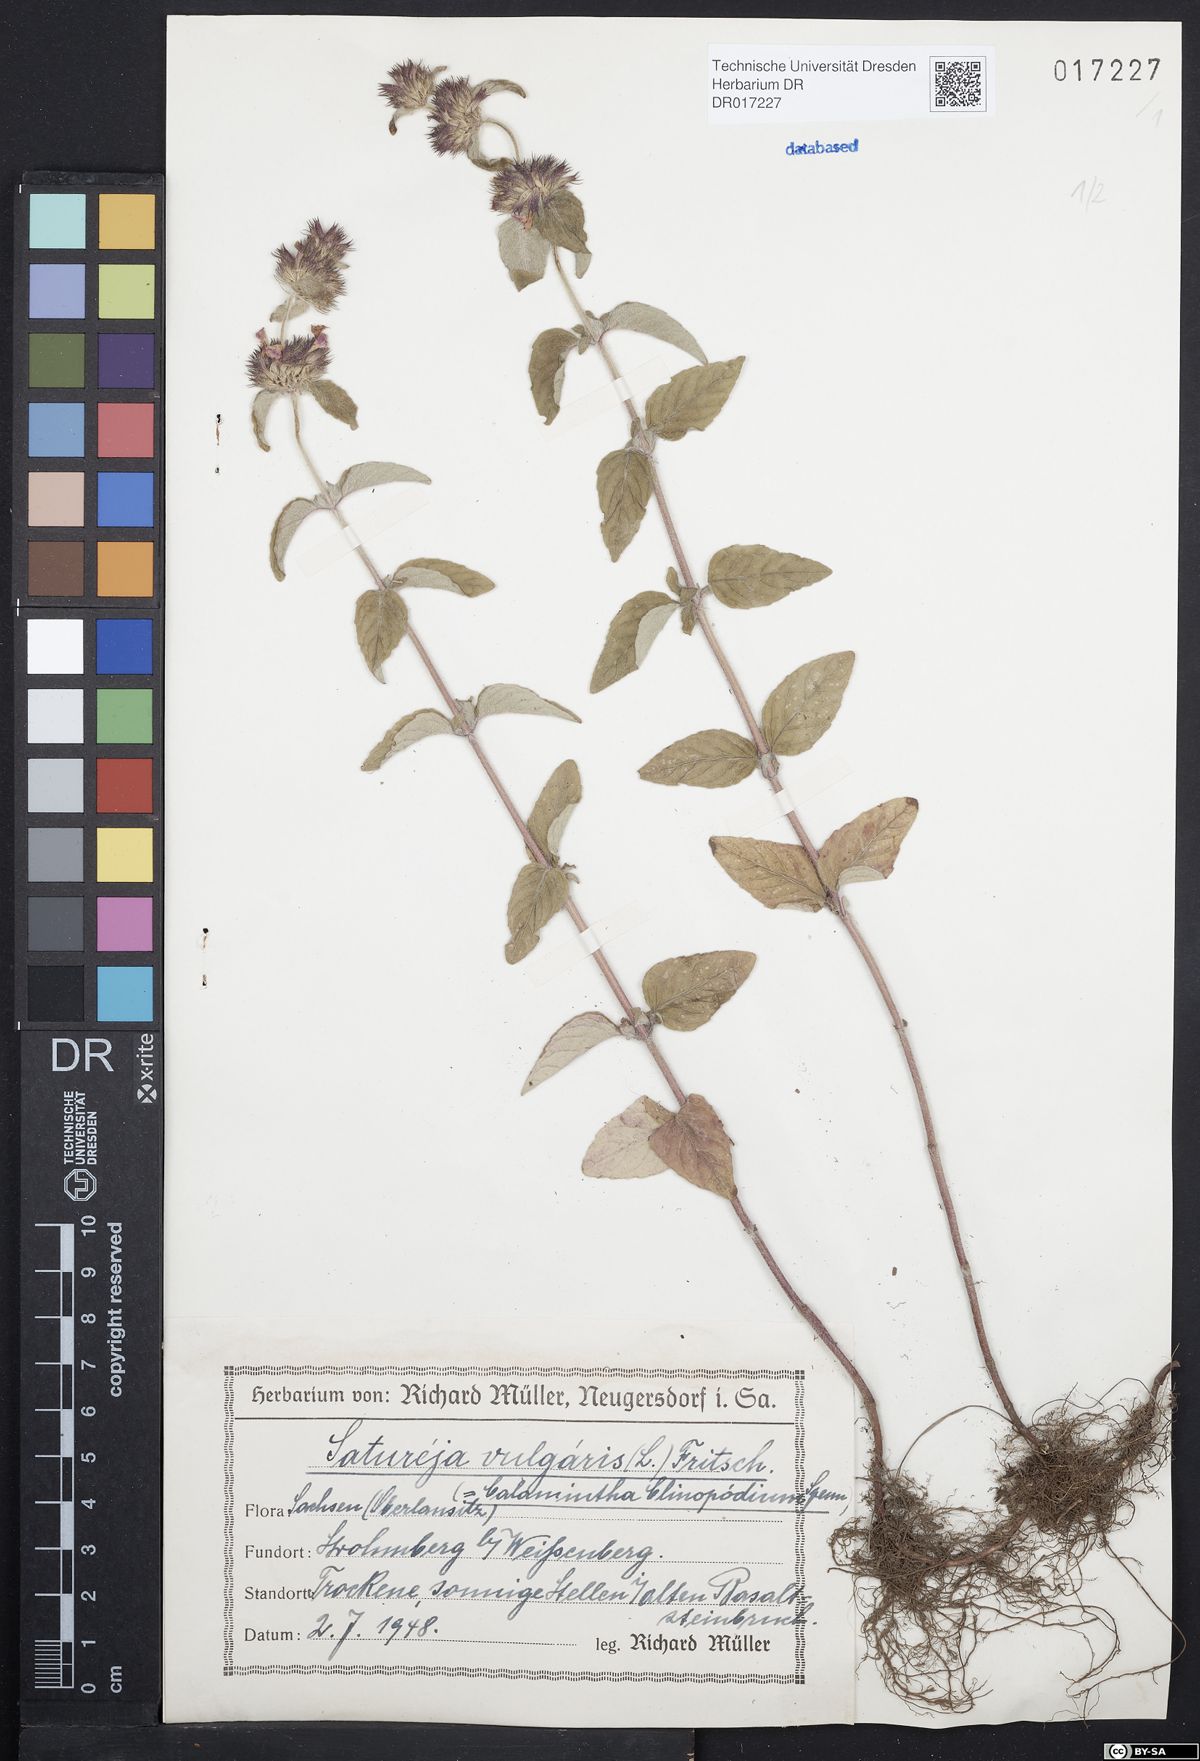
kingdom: Plantae
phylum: Tracheophyta
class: Magnoliopsida
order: Lamiales
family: Lamiaceae
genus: Clinopodium
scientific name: Clinopodium vulgare
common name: Wild basil
